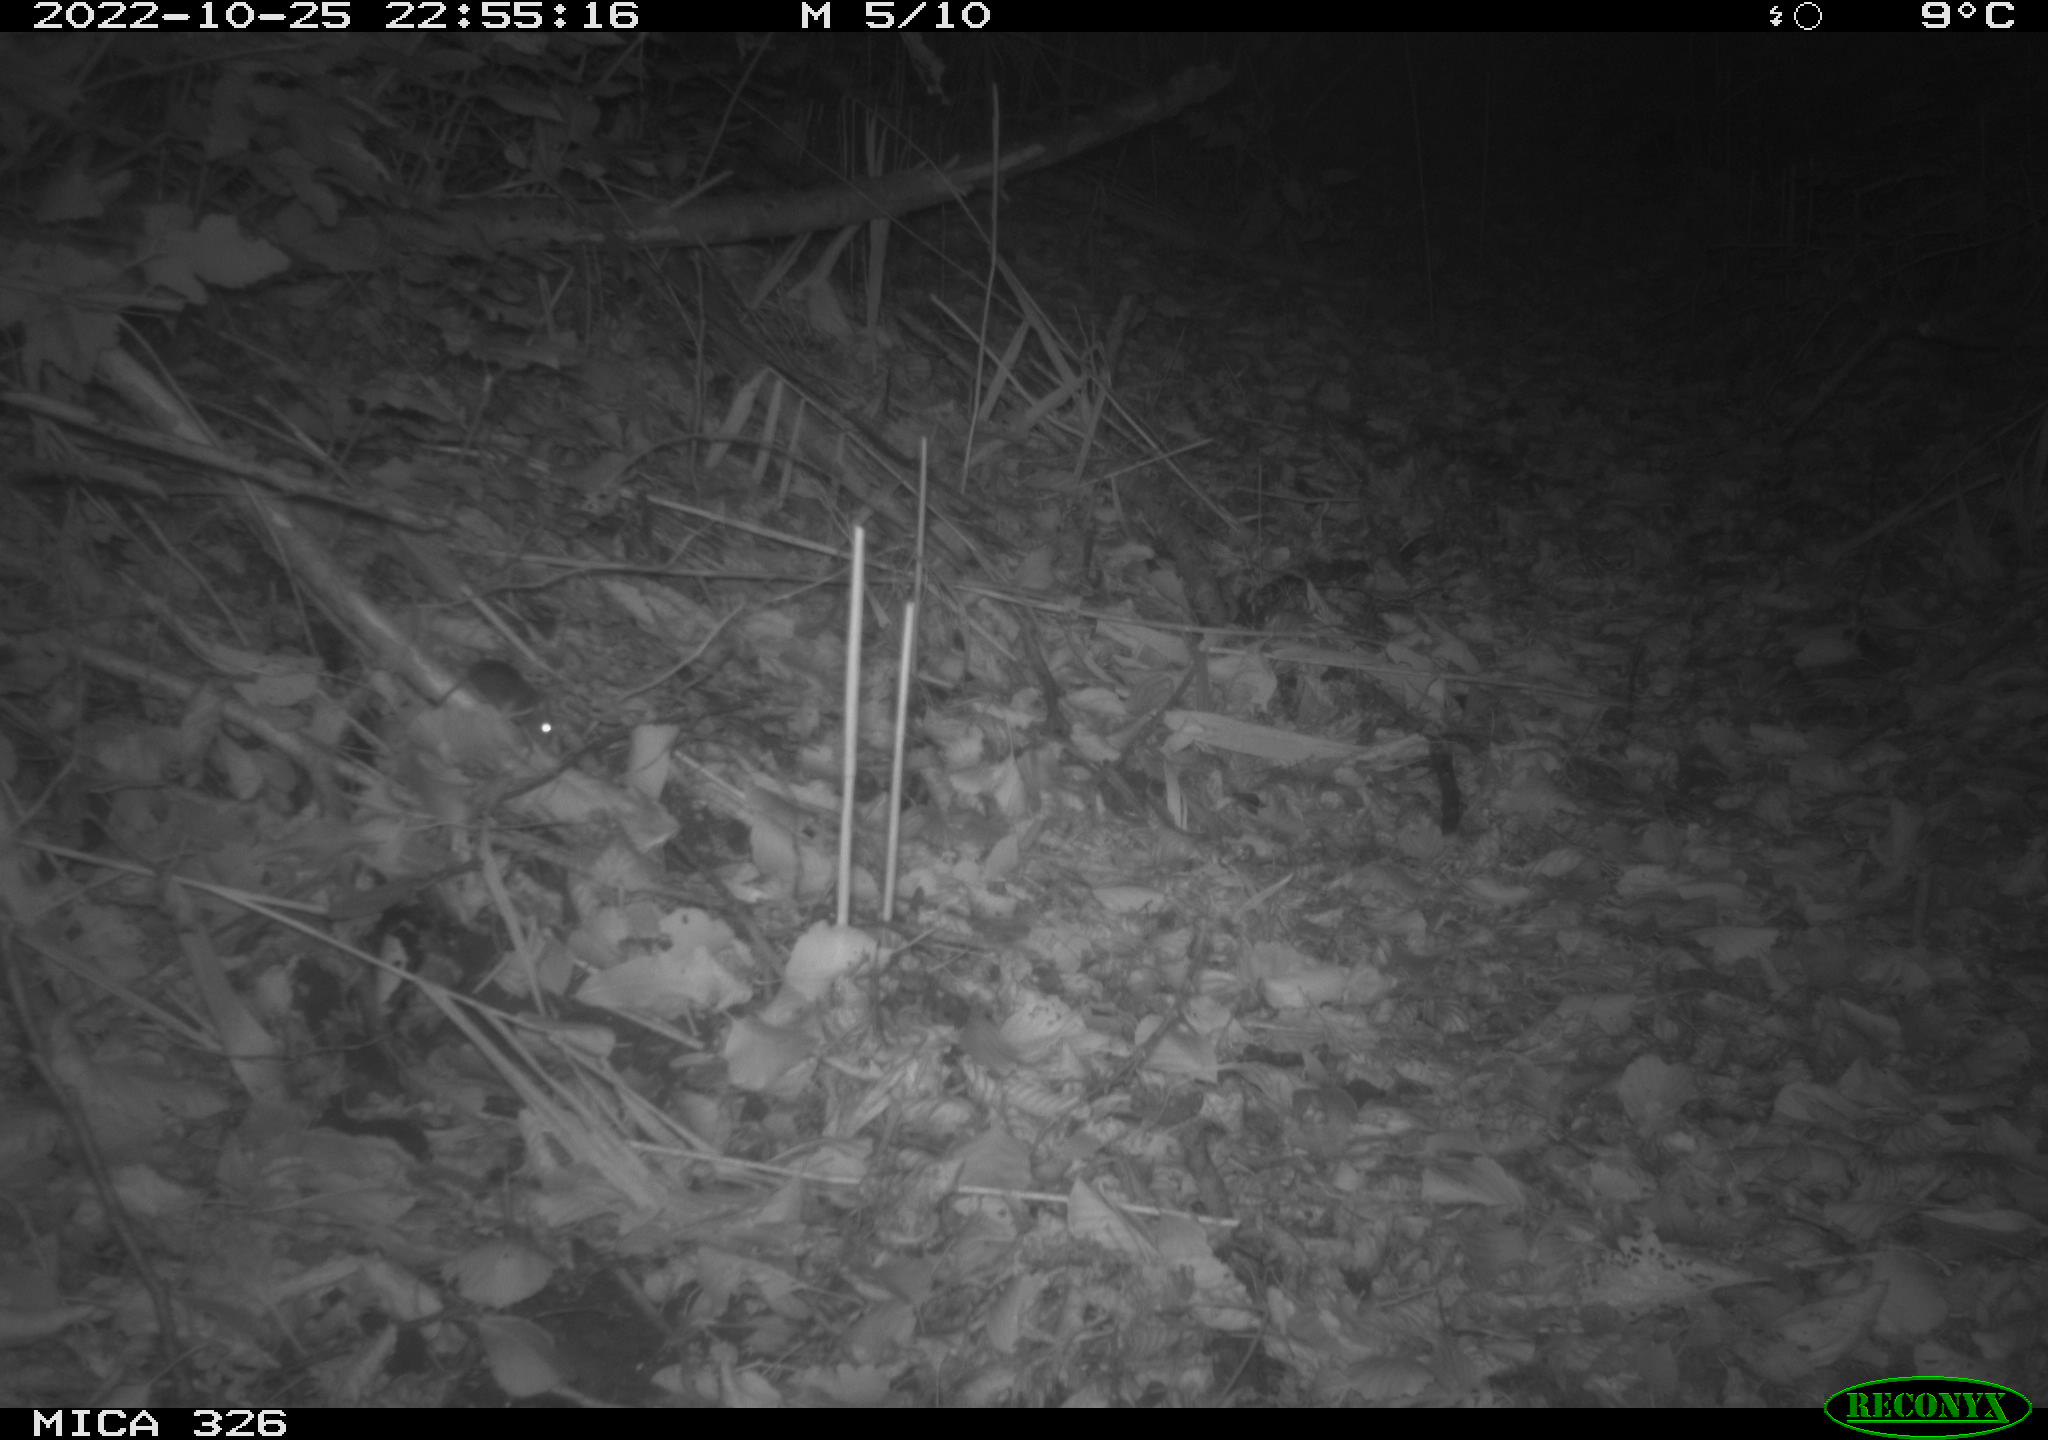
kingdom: Animalia
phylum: Chordata
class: Mammalia
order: Rodentia
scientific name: Rodentia
